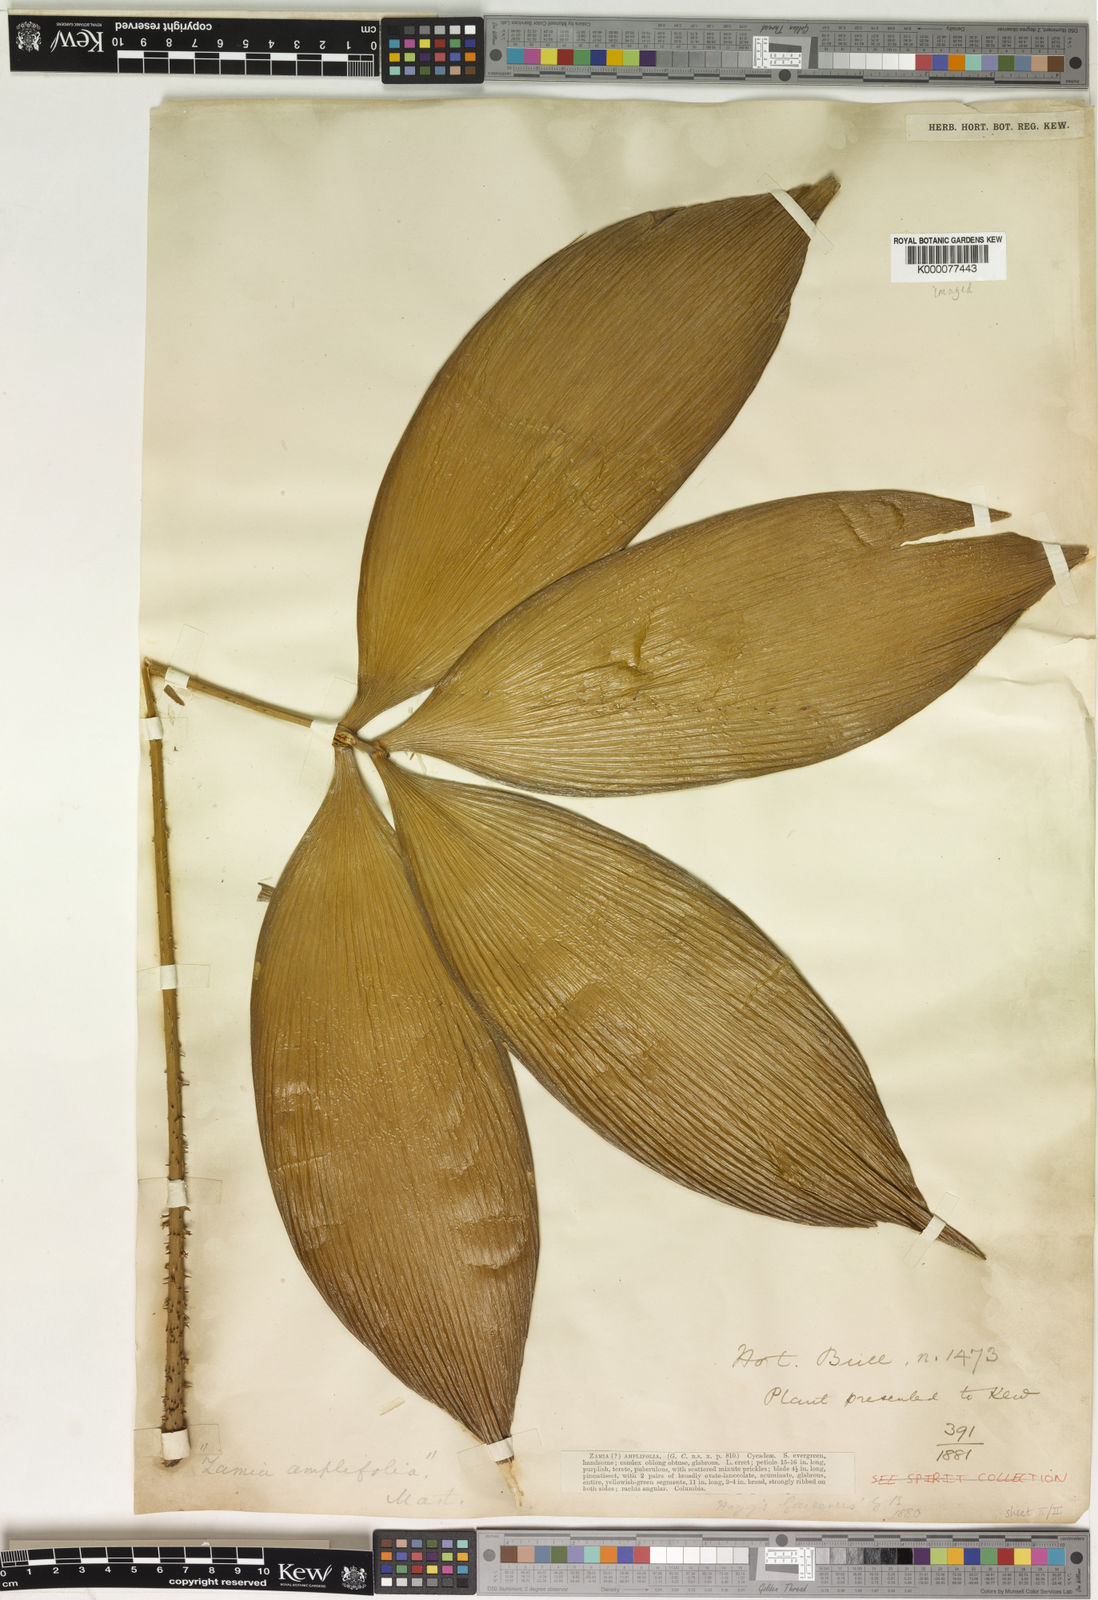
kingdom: Plantae
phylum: Tracheophyta
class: Cycadopsida
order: Cycadales
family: Zamiaceae
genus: Zamia
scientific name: Zamia amplifolia
